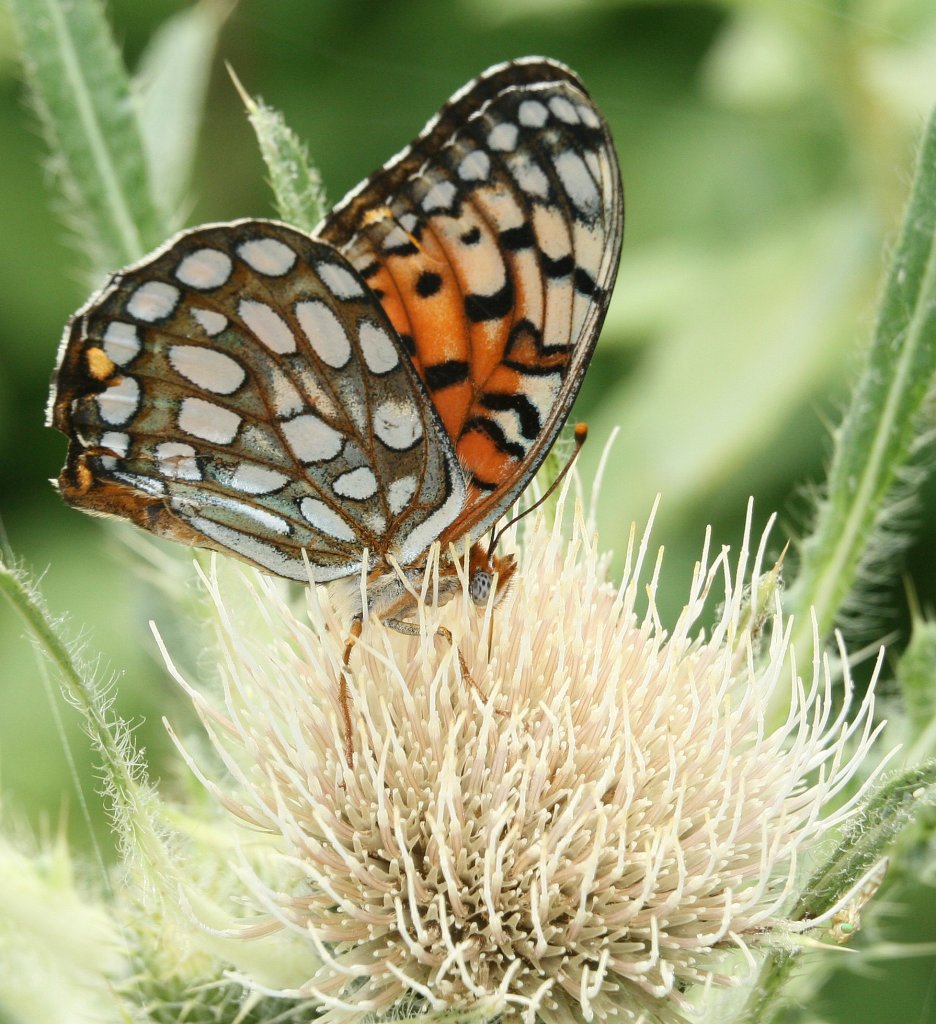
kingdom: Animalia
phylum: Arthropoda
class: Insecta
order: Lepidoptera
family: Nymphalidae
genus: Speyeria
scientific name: Speyeria edwardsii
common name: Edwards' Fritillary
